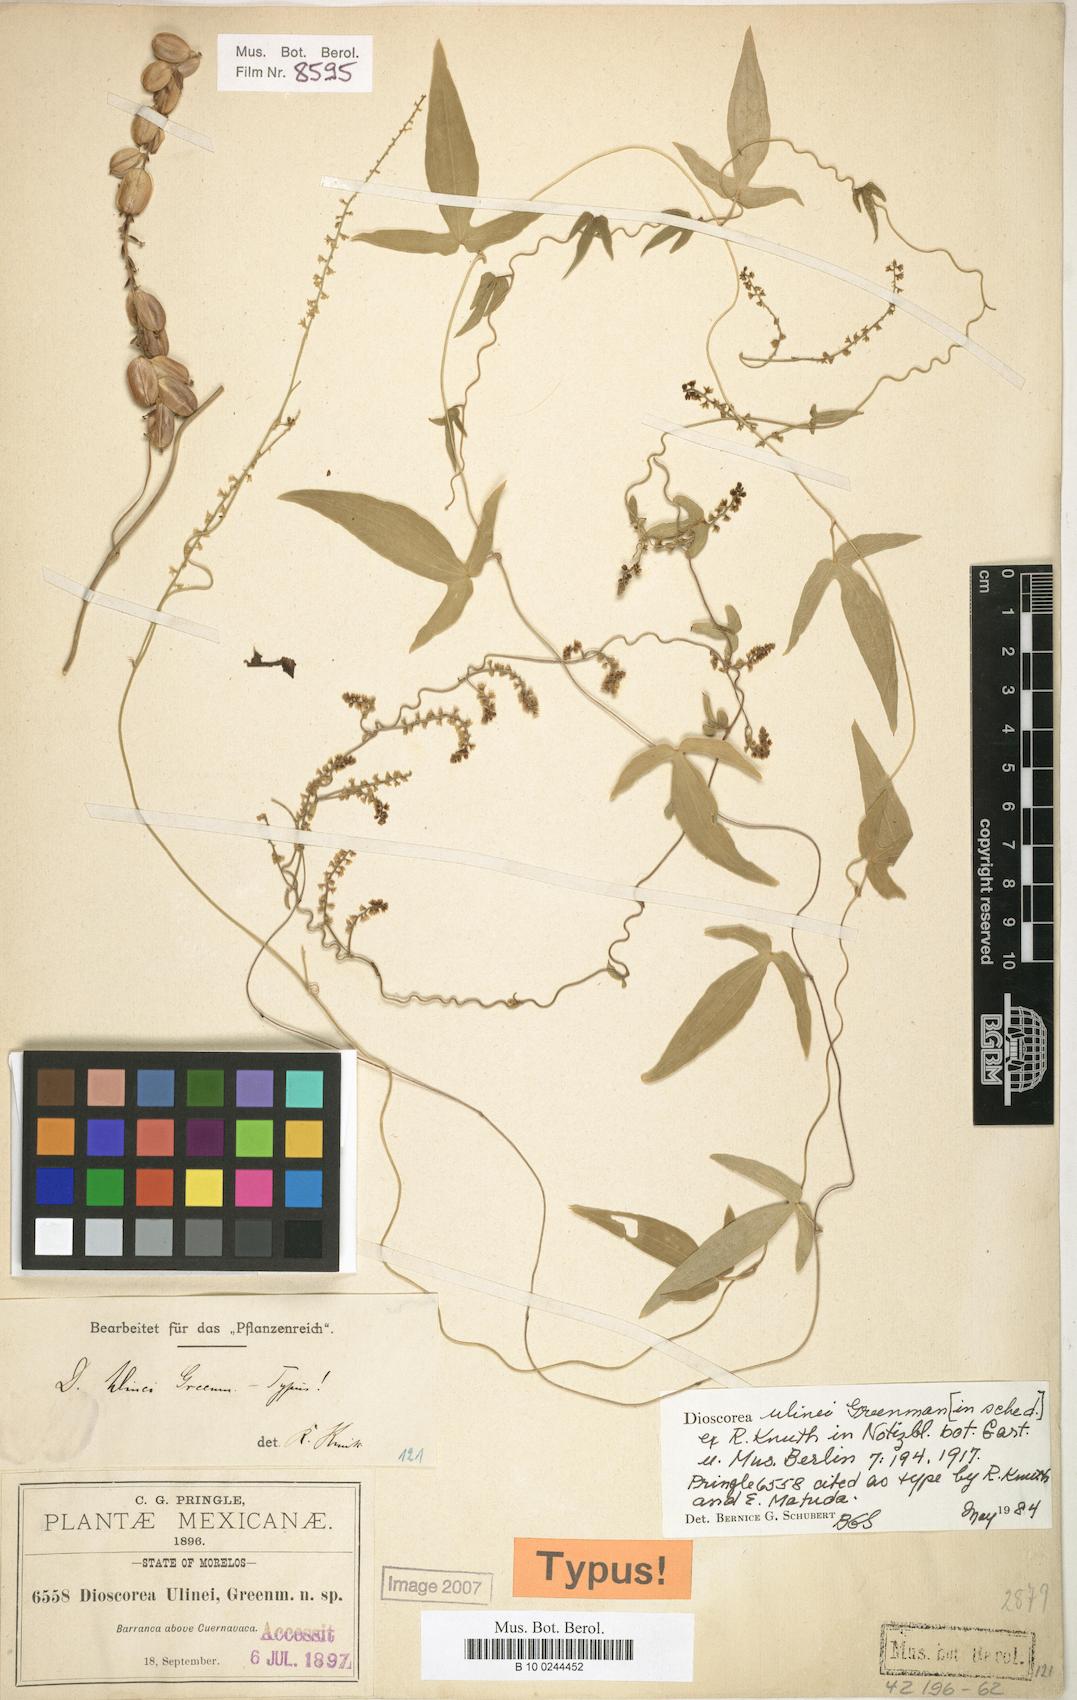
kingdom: Plantae
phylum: Tracheophyta
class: Liliopsida
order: Dioscoreales
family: Dioscoreaceae
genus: Dioscorea
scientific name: Dioscorea ulinei
